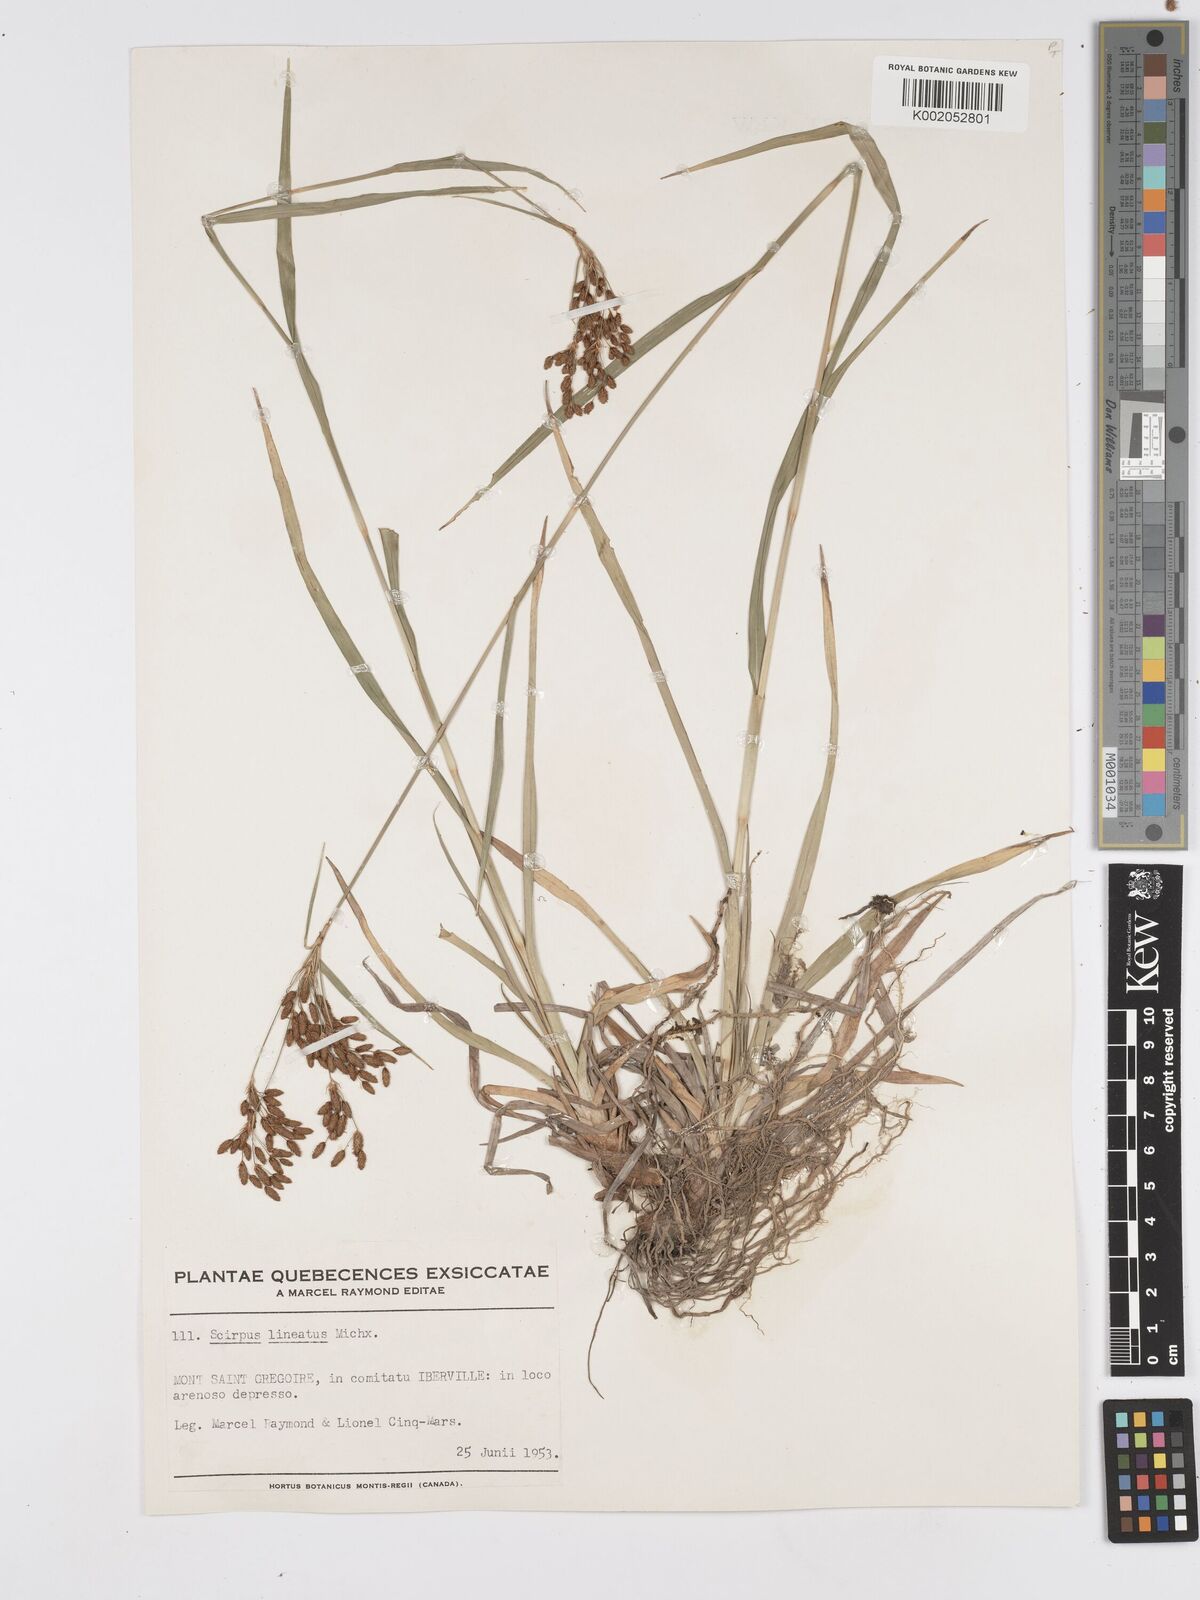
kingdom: Plantae
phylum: Tracheophyta
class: Liliopsida
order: Poales
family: Cyperaceae
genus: Scirpus
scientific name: Scirpus lineatus
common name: Drooping bulrush
